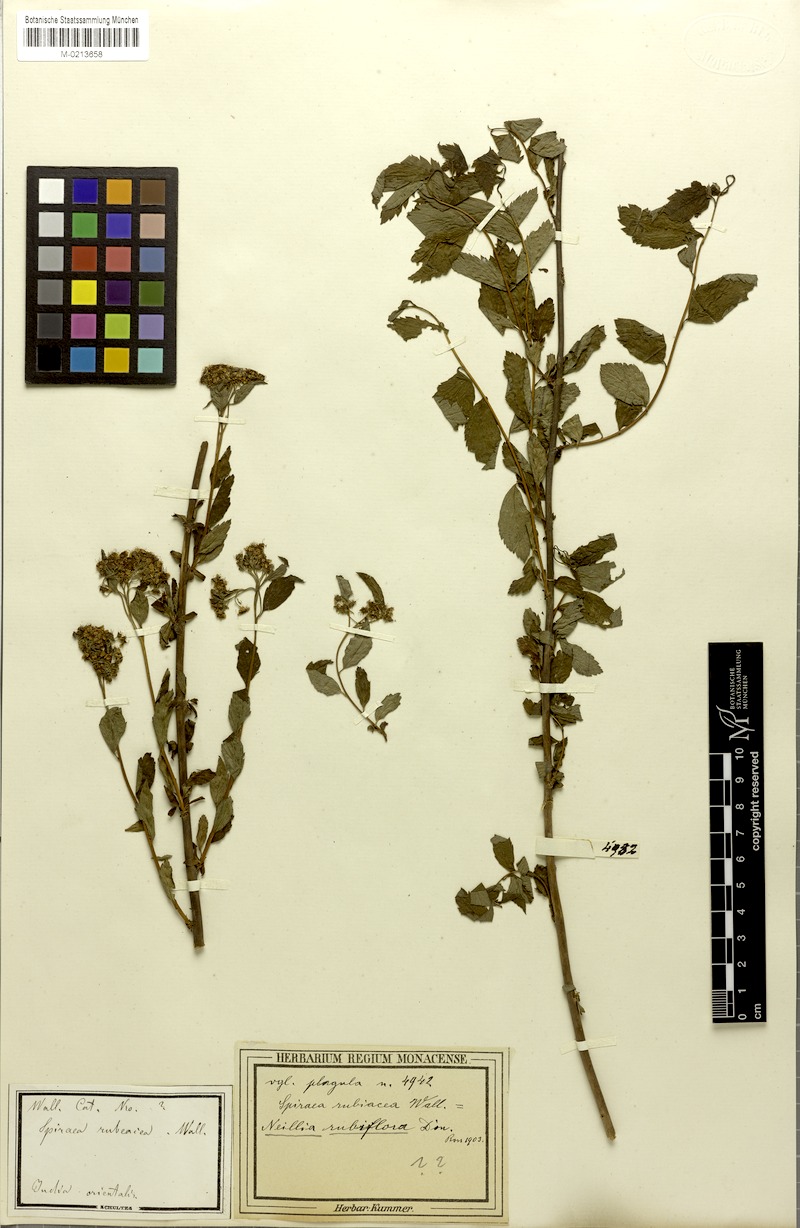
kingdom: Plantae
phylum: Tracheophyta
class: Magnoliopsida
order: Rosales
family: Rosaceae
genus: Spiraea
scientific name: Spiraea
